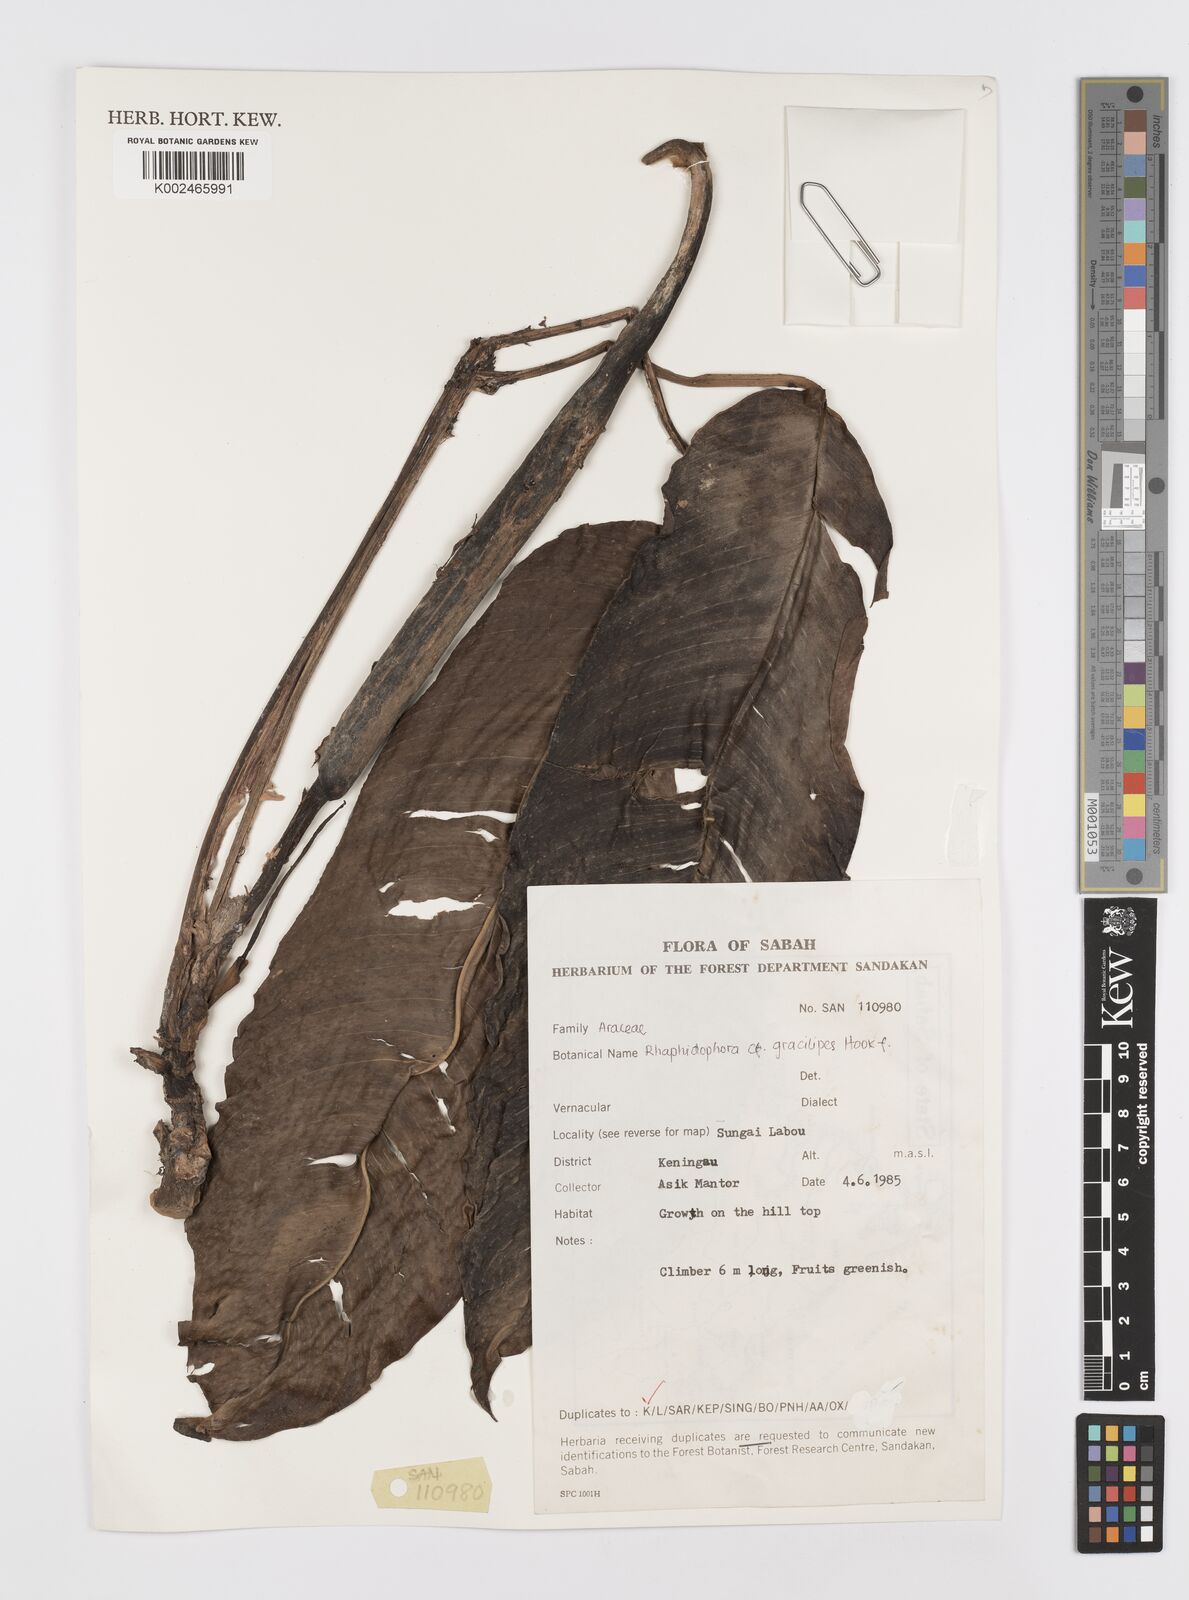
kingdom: Plantae
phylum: Tracheophyta
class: Liliopsida
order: Alismatales
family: Araceae
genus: Rhaphidophora
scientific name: Rhaphidophora puberula
